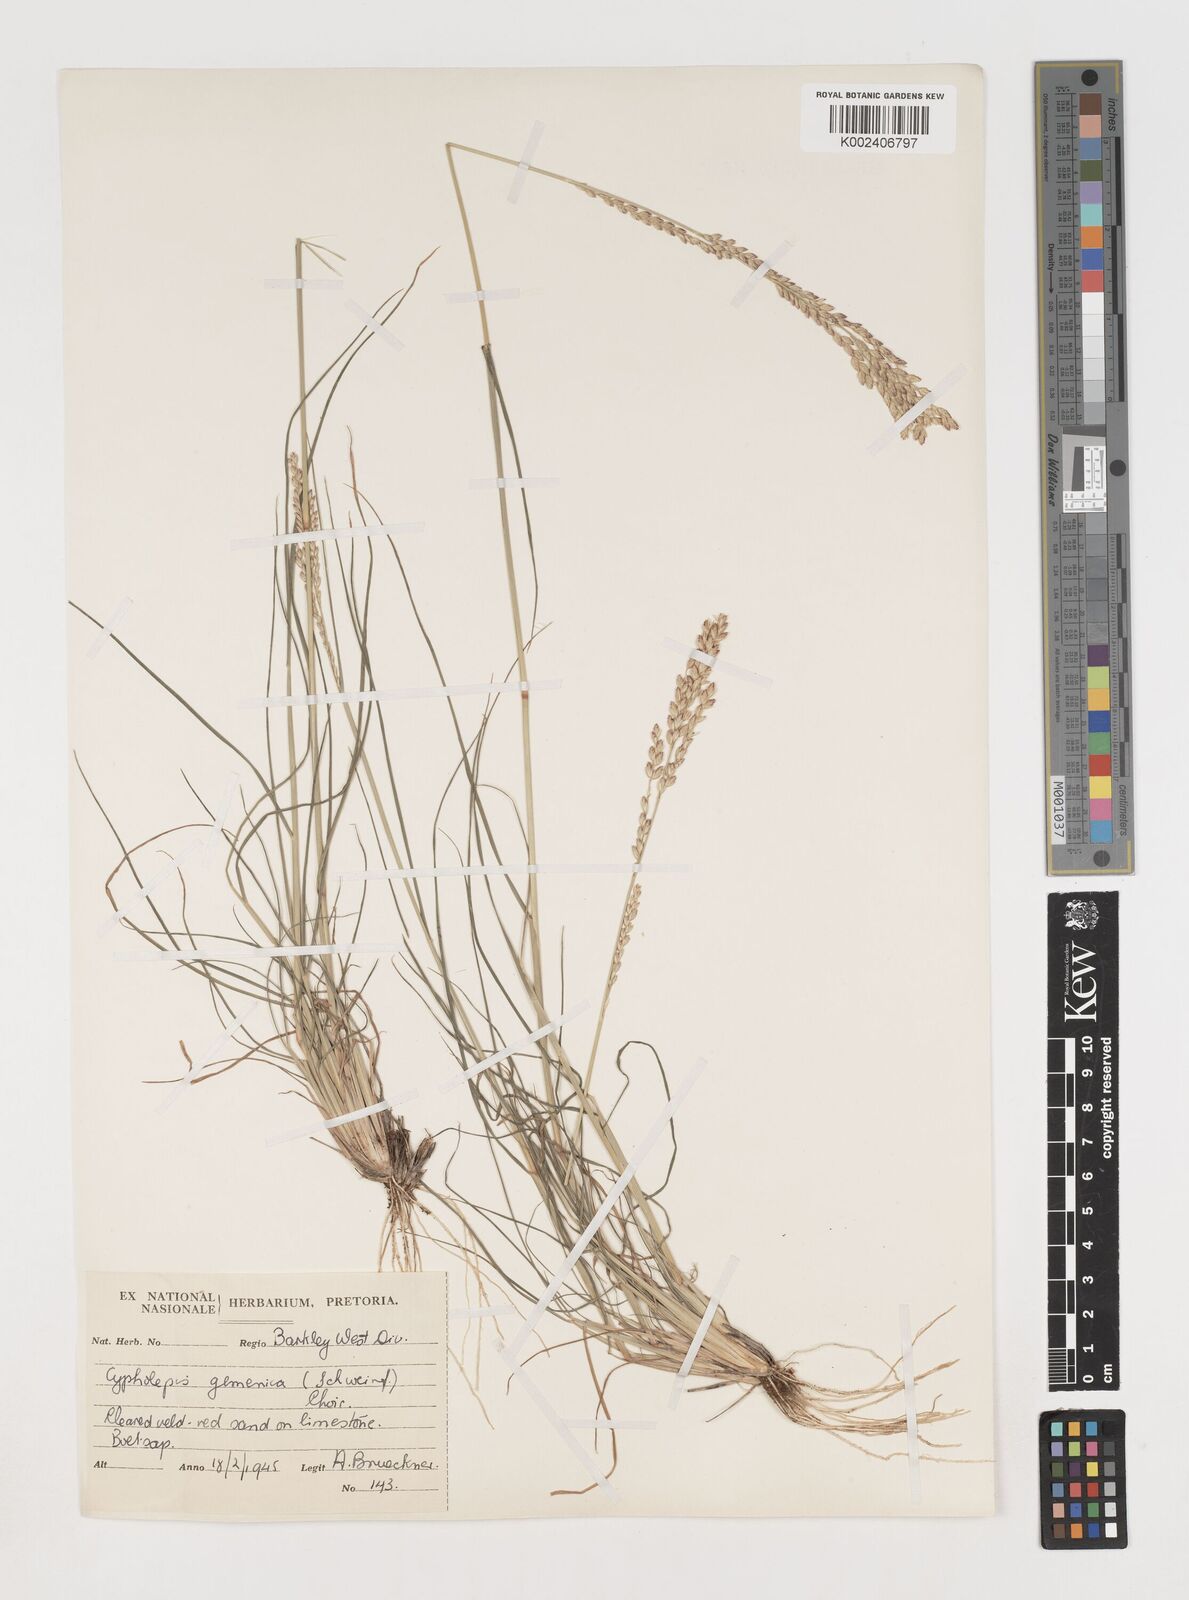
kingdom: Plantae
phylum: Tracheophyta
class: Liliopsida
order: Poales
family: Poaceae
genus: Disakisperma
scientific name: Disakisperma yemenicum
